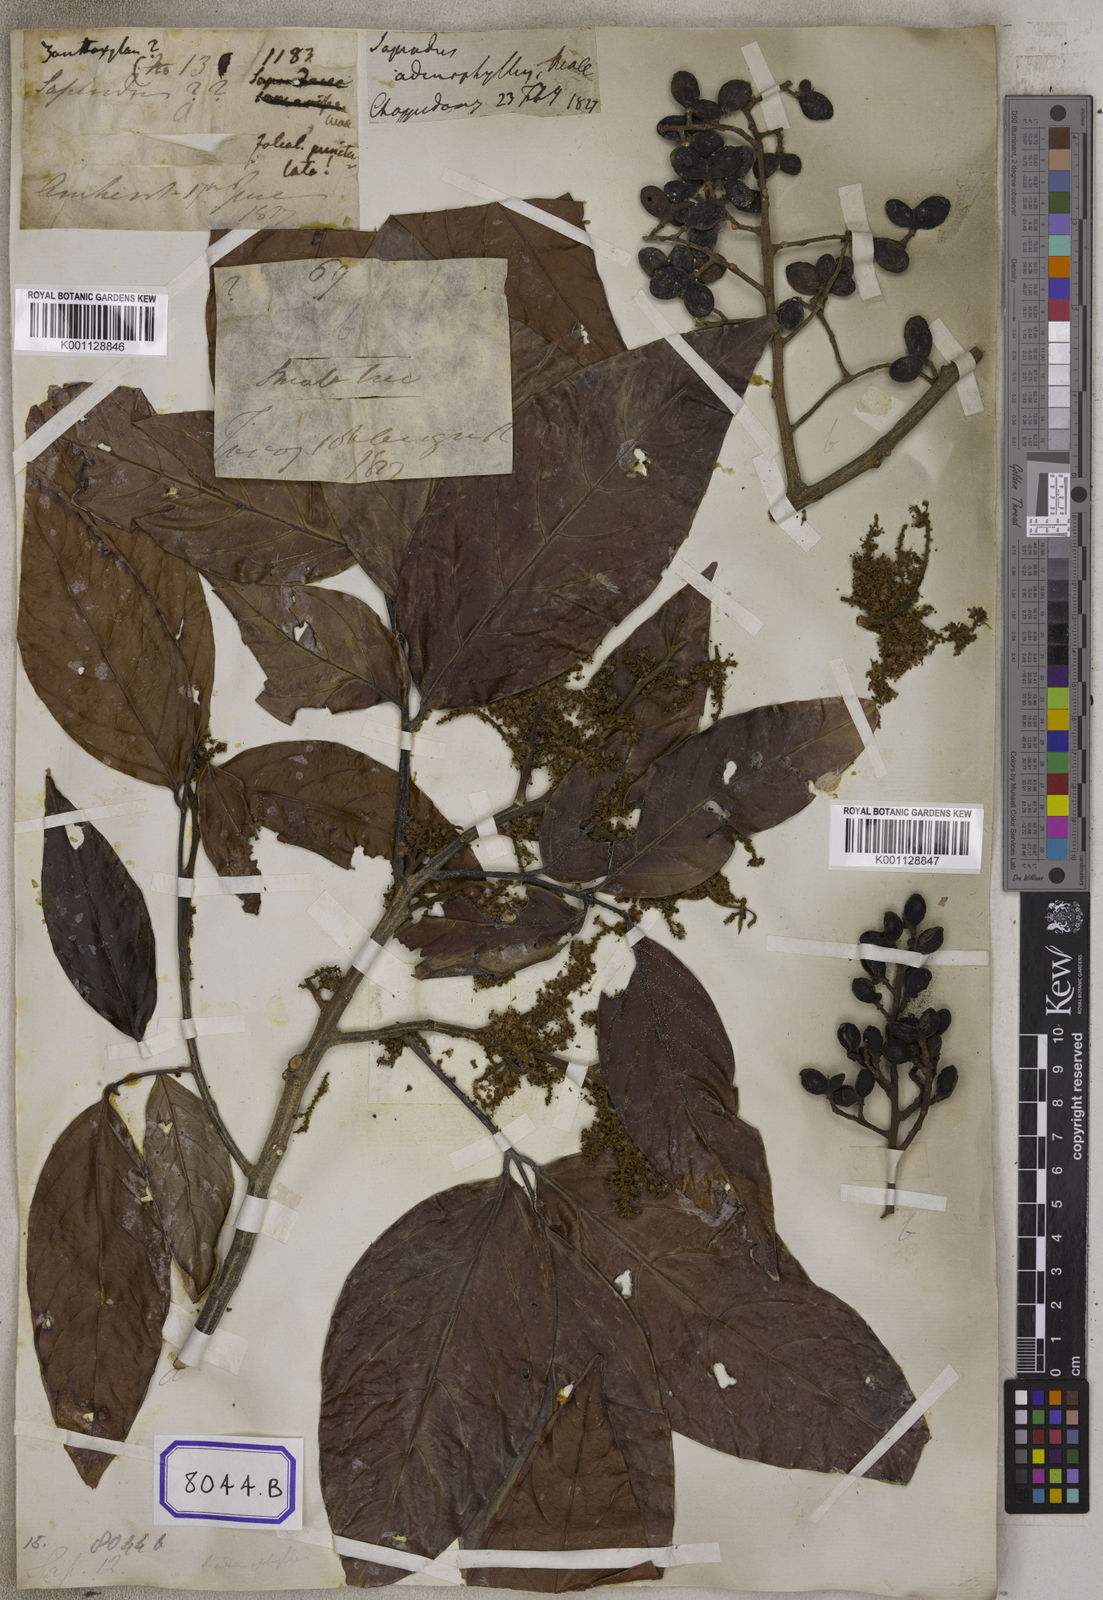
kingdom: Plantae
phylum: Tracheophyta
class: Magnoliopsida
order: Sapindales
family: Sapindaceae
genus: Arytera
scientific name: Arytera litoralis
